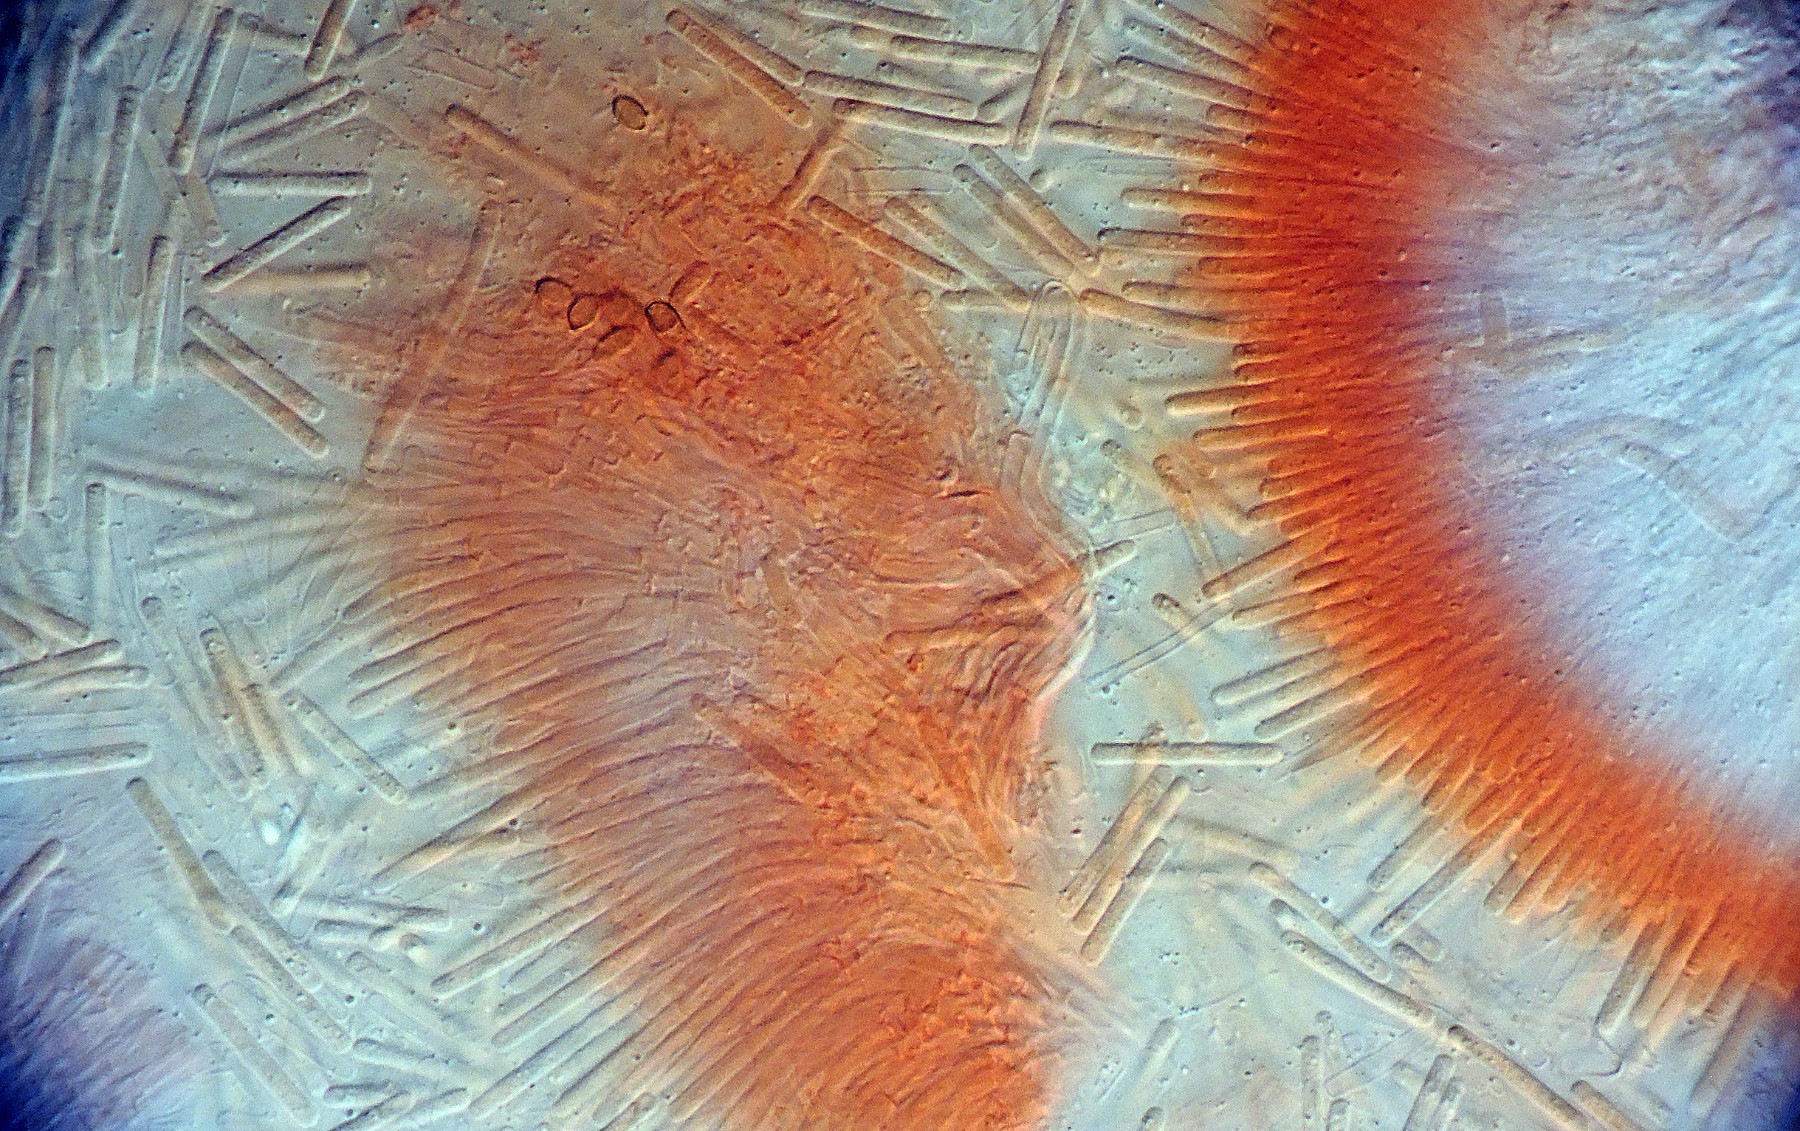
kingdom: Fungi
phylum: Ascomycota
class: Leotiomycetes
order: Helotiales
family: Calloriaceae
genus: Cylindrocolla
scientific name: Cylindrocolla
